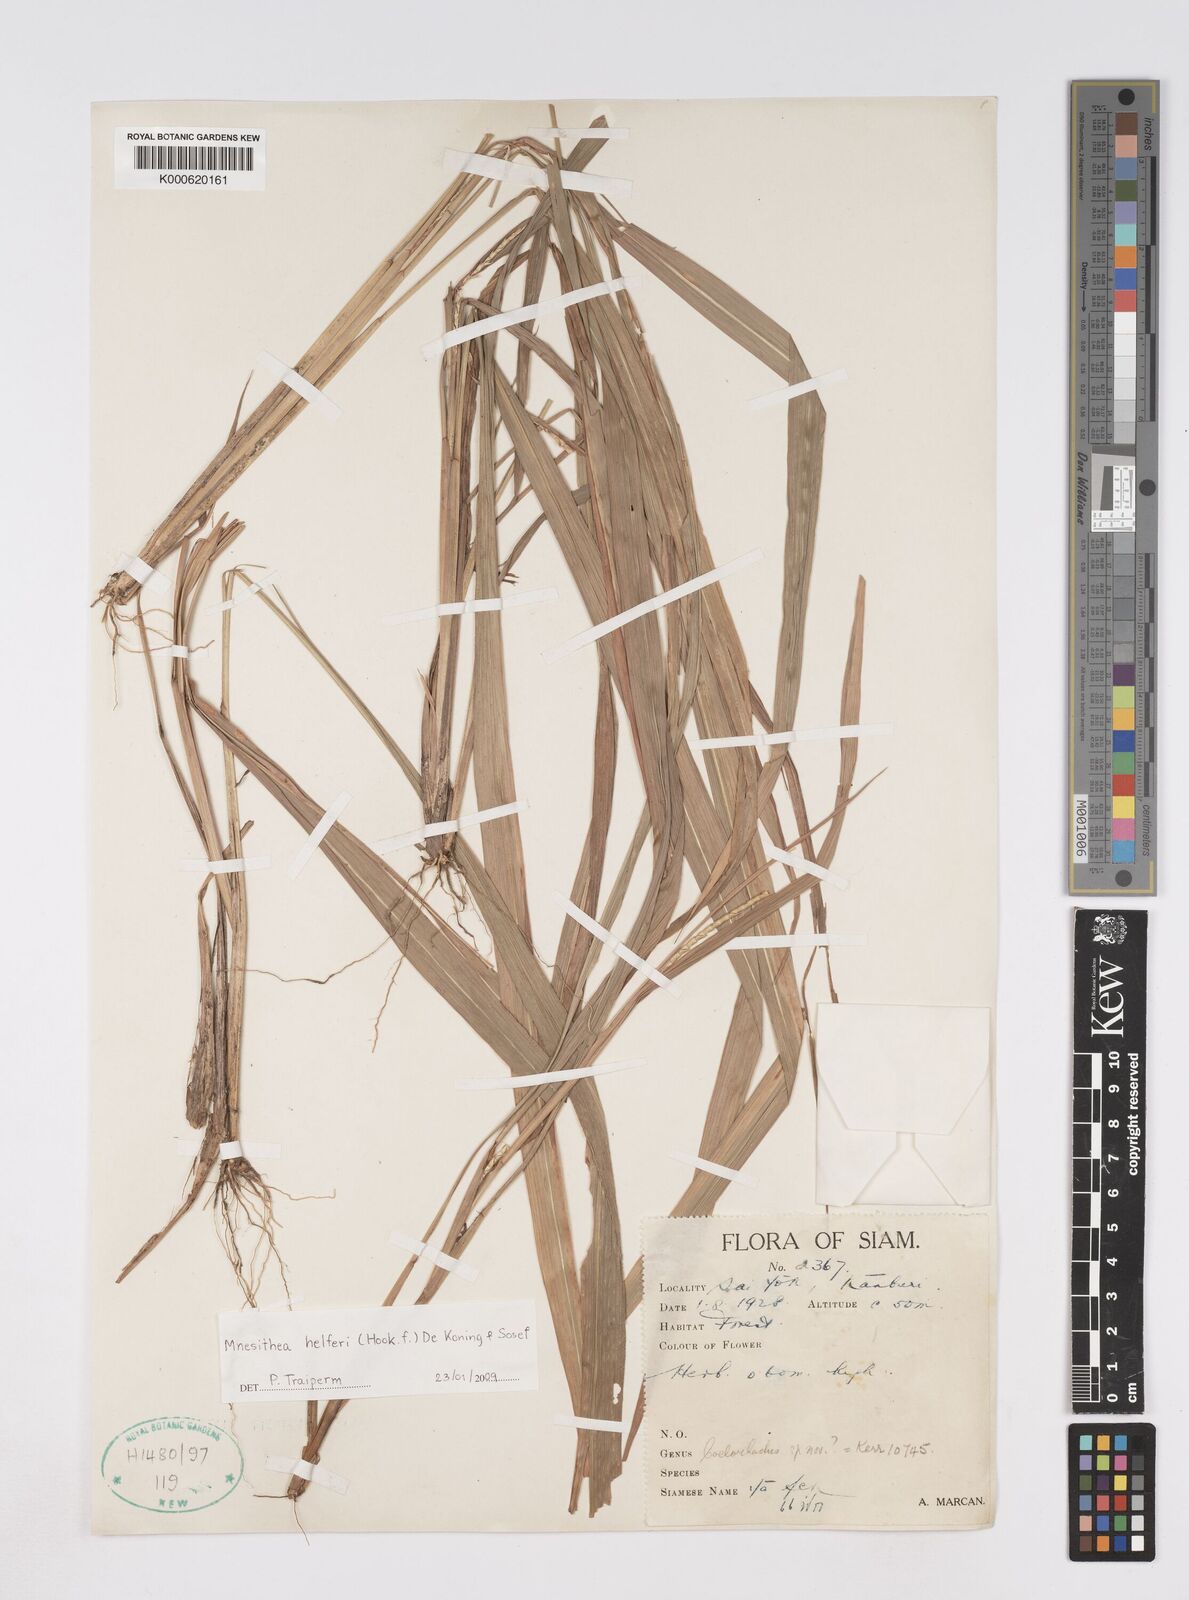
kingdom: Plantae
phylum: Tracheophyta
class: Liliopsida
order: Poales
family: Poaceae
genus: Rottboellia
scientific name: Rottboellia helferi
